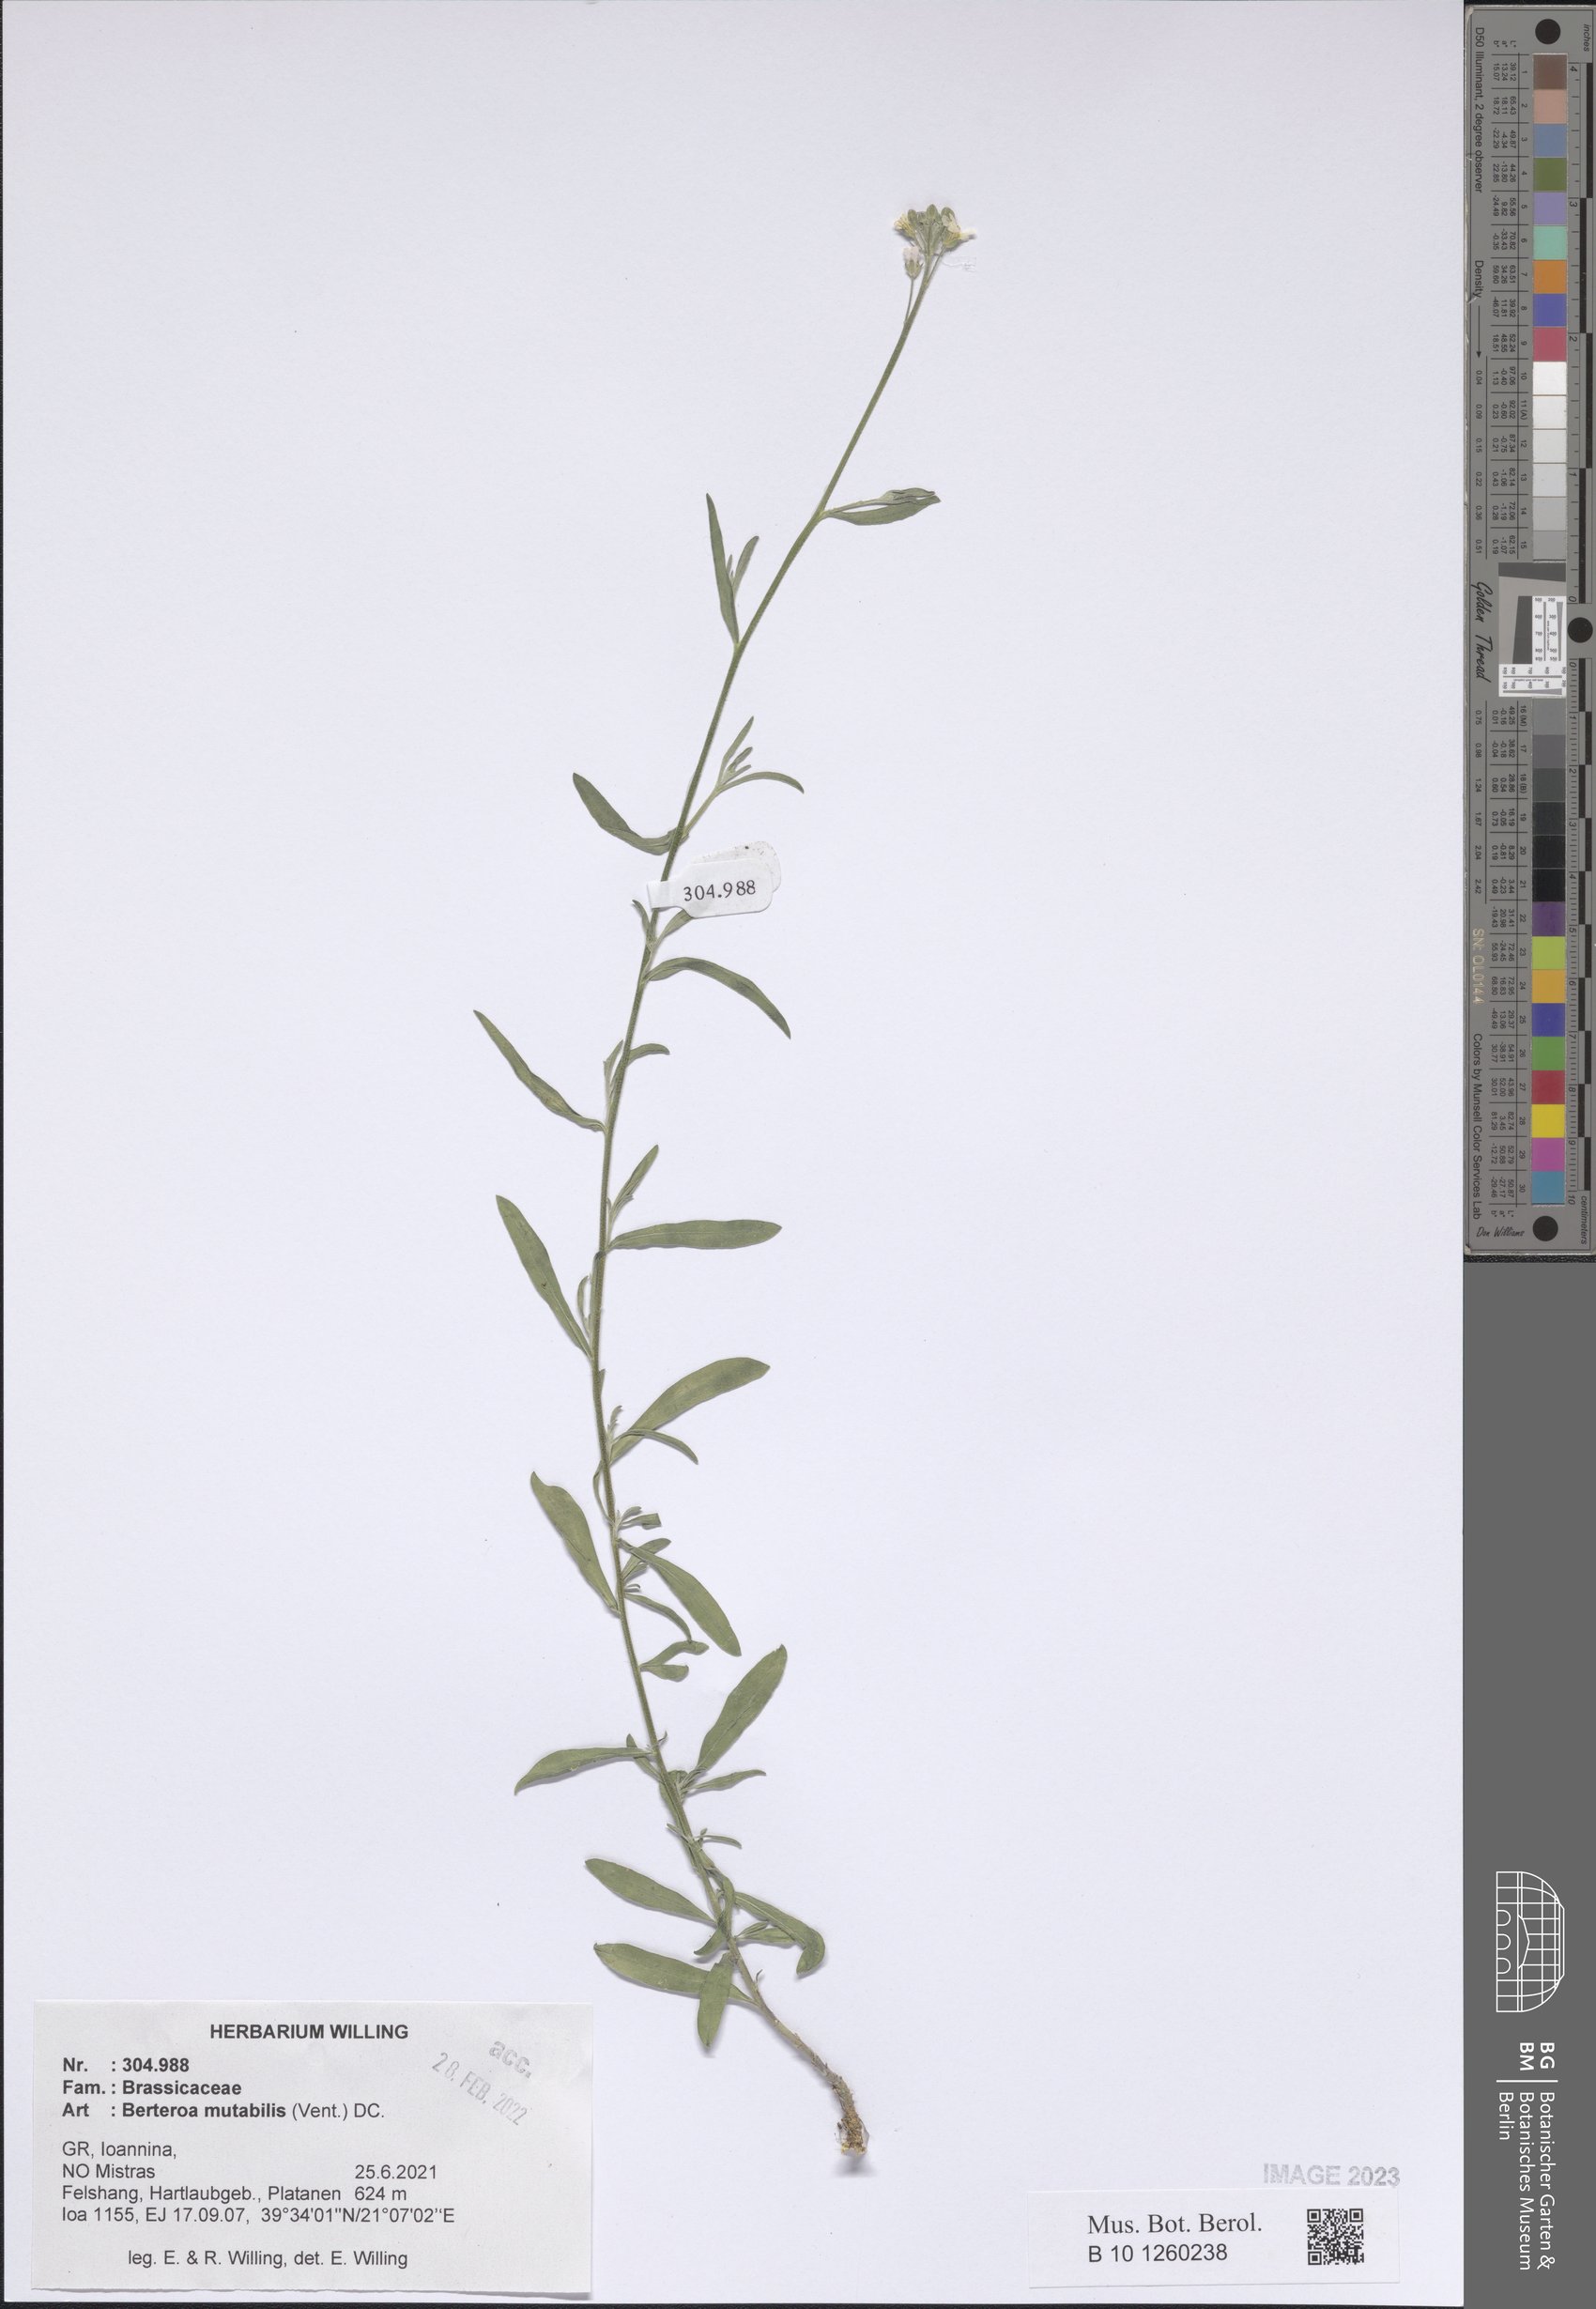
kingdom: Plantae
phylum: Tracheophyta
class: Magnoliopsida
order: Brassicales
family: Brassicaceae
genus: Berteroa
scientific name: Berteroa mutabilis
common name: Roadside false madwort
